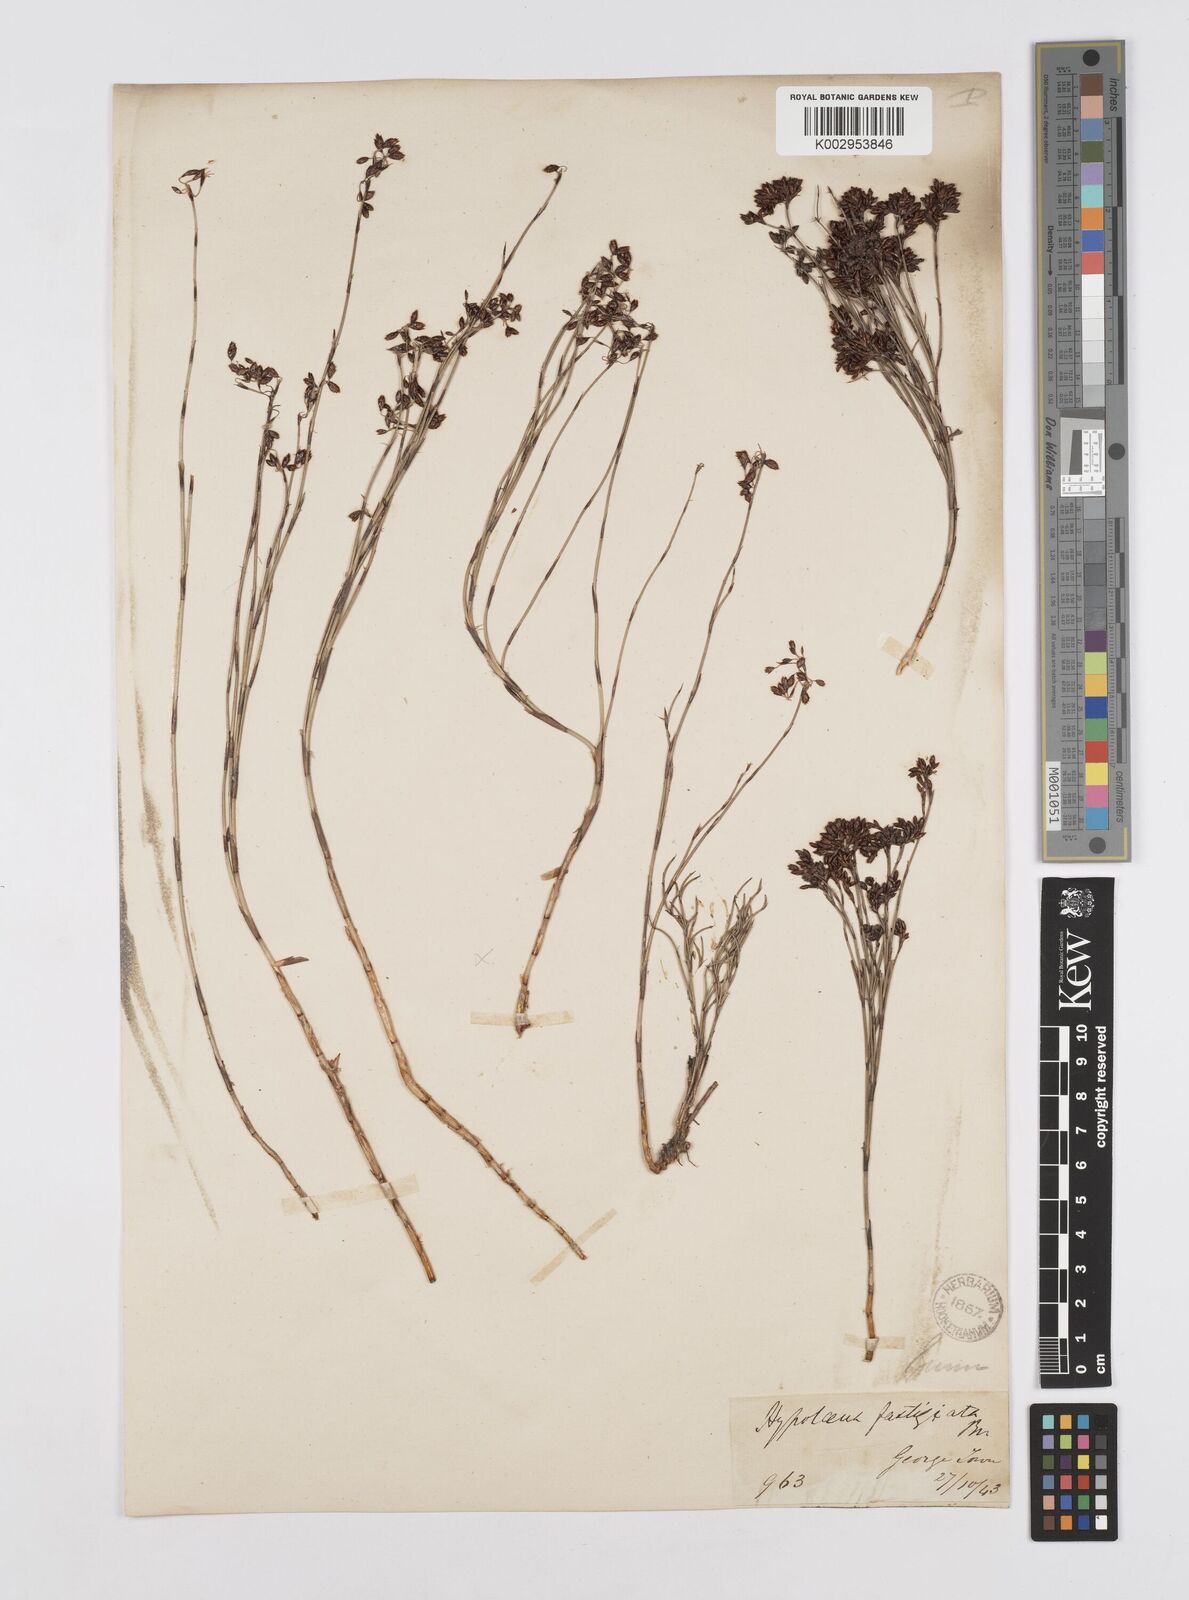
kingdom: Plantae
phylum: Tracheophyta
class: Liliopsida
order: Poales
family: Restionaceae
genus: Hypolaena
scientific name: Hypolaena fastigiata
